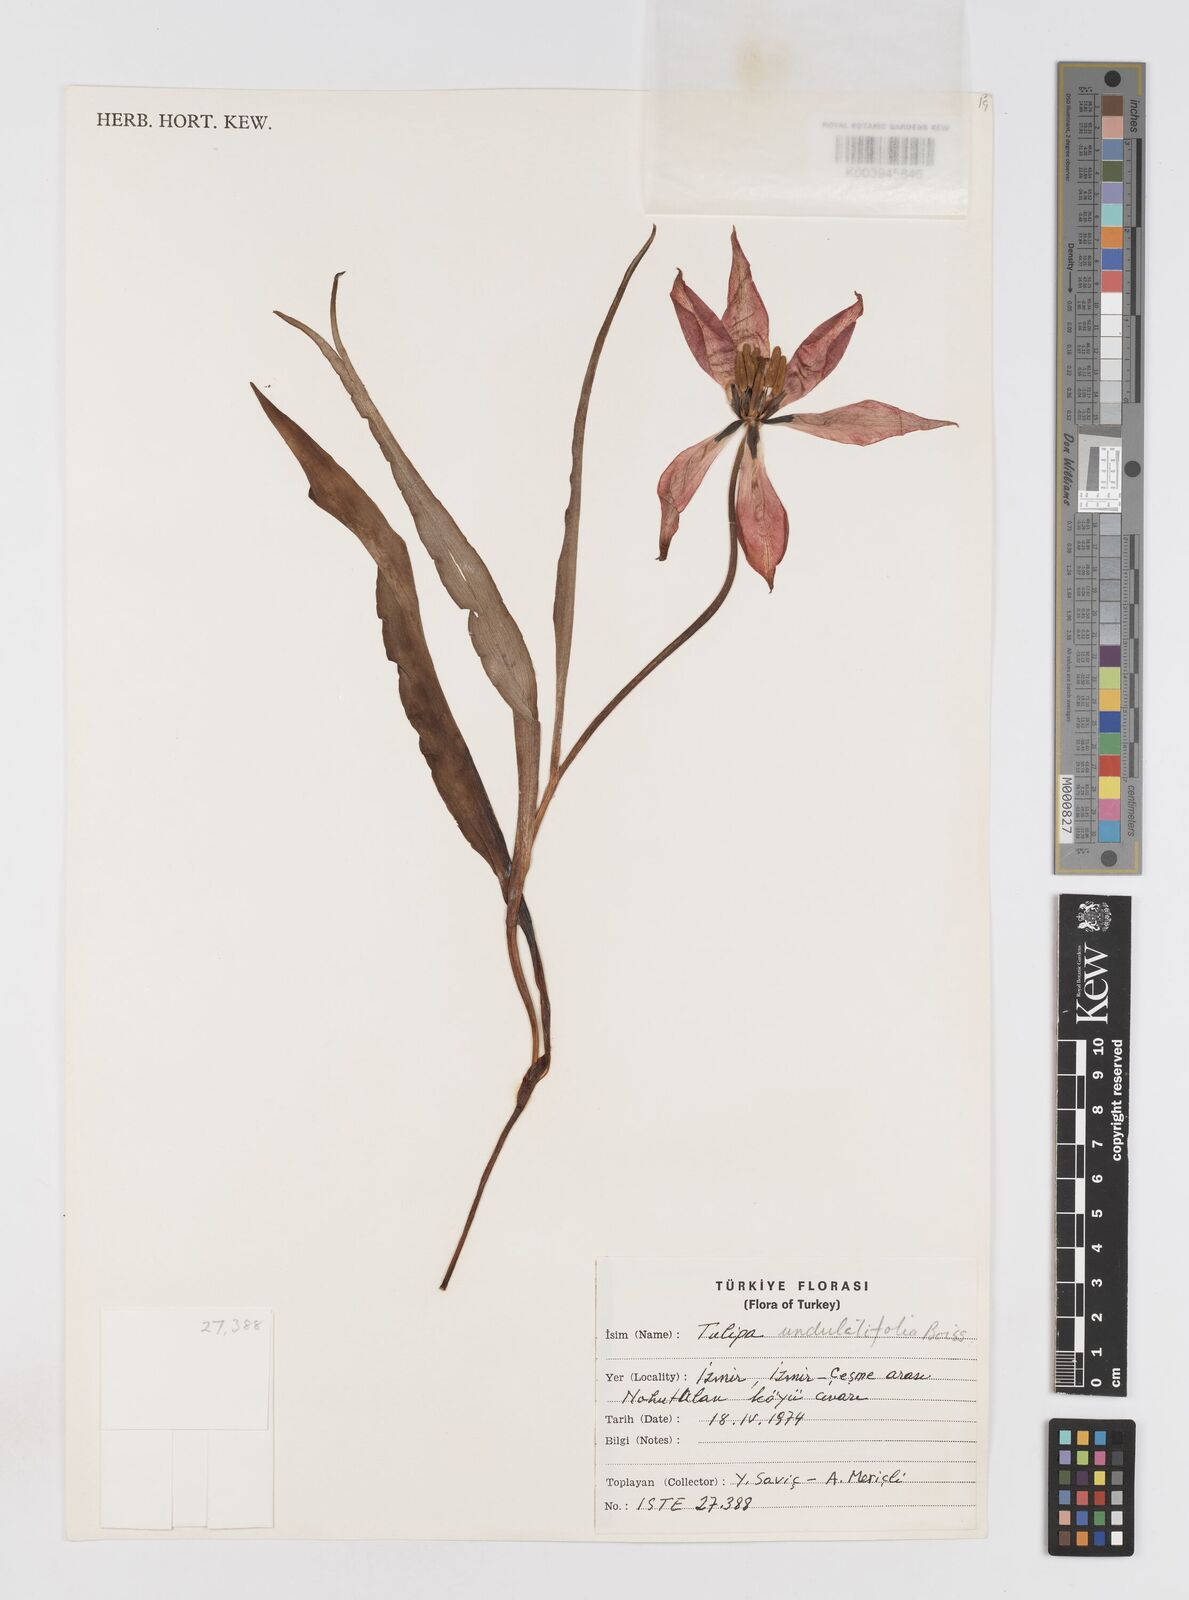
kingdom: Plantae
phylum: Tracheophyta
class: Liliopsida
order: Liliales
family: Liliaceae
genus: Tulipa
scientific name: Tulipa undulatifolia
